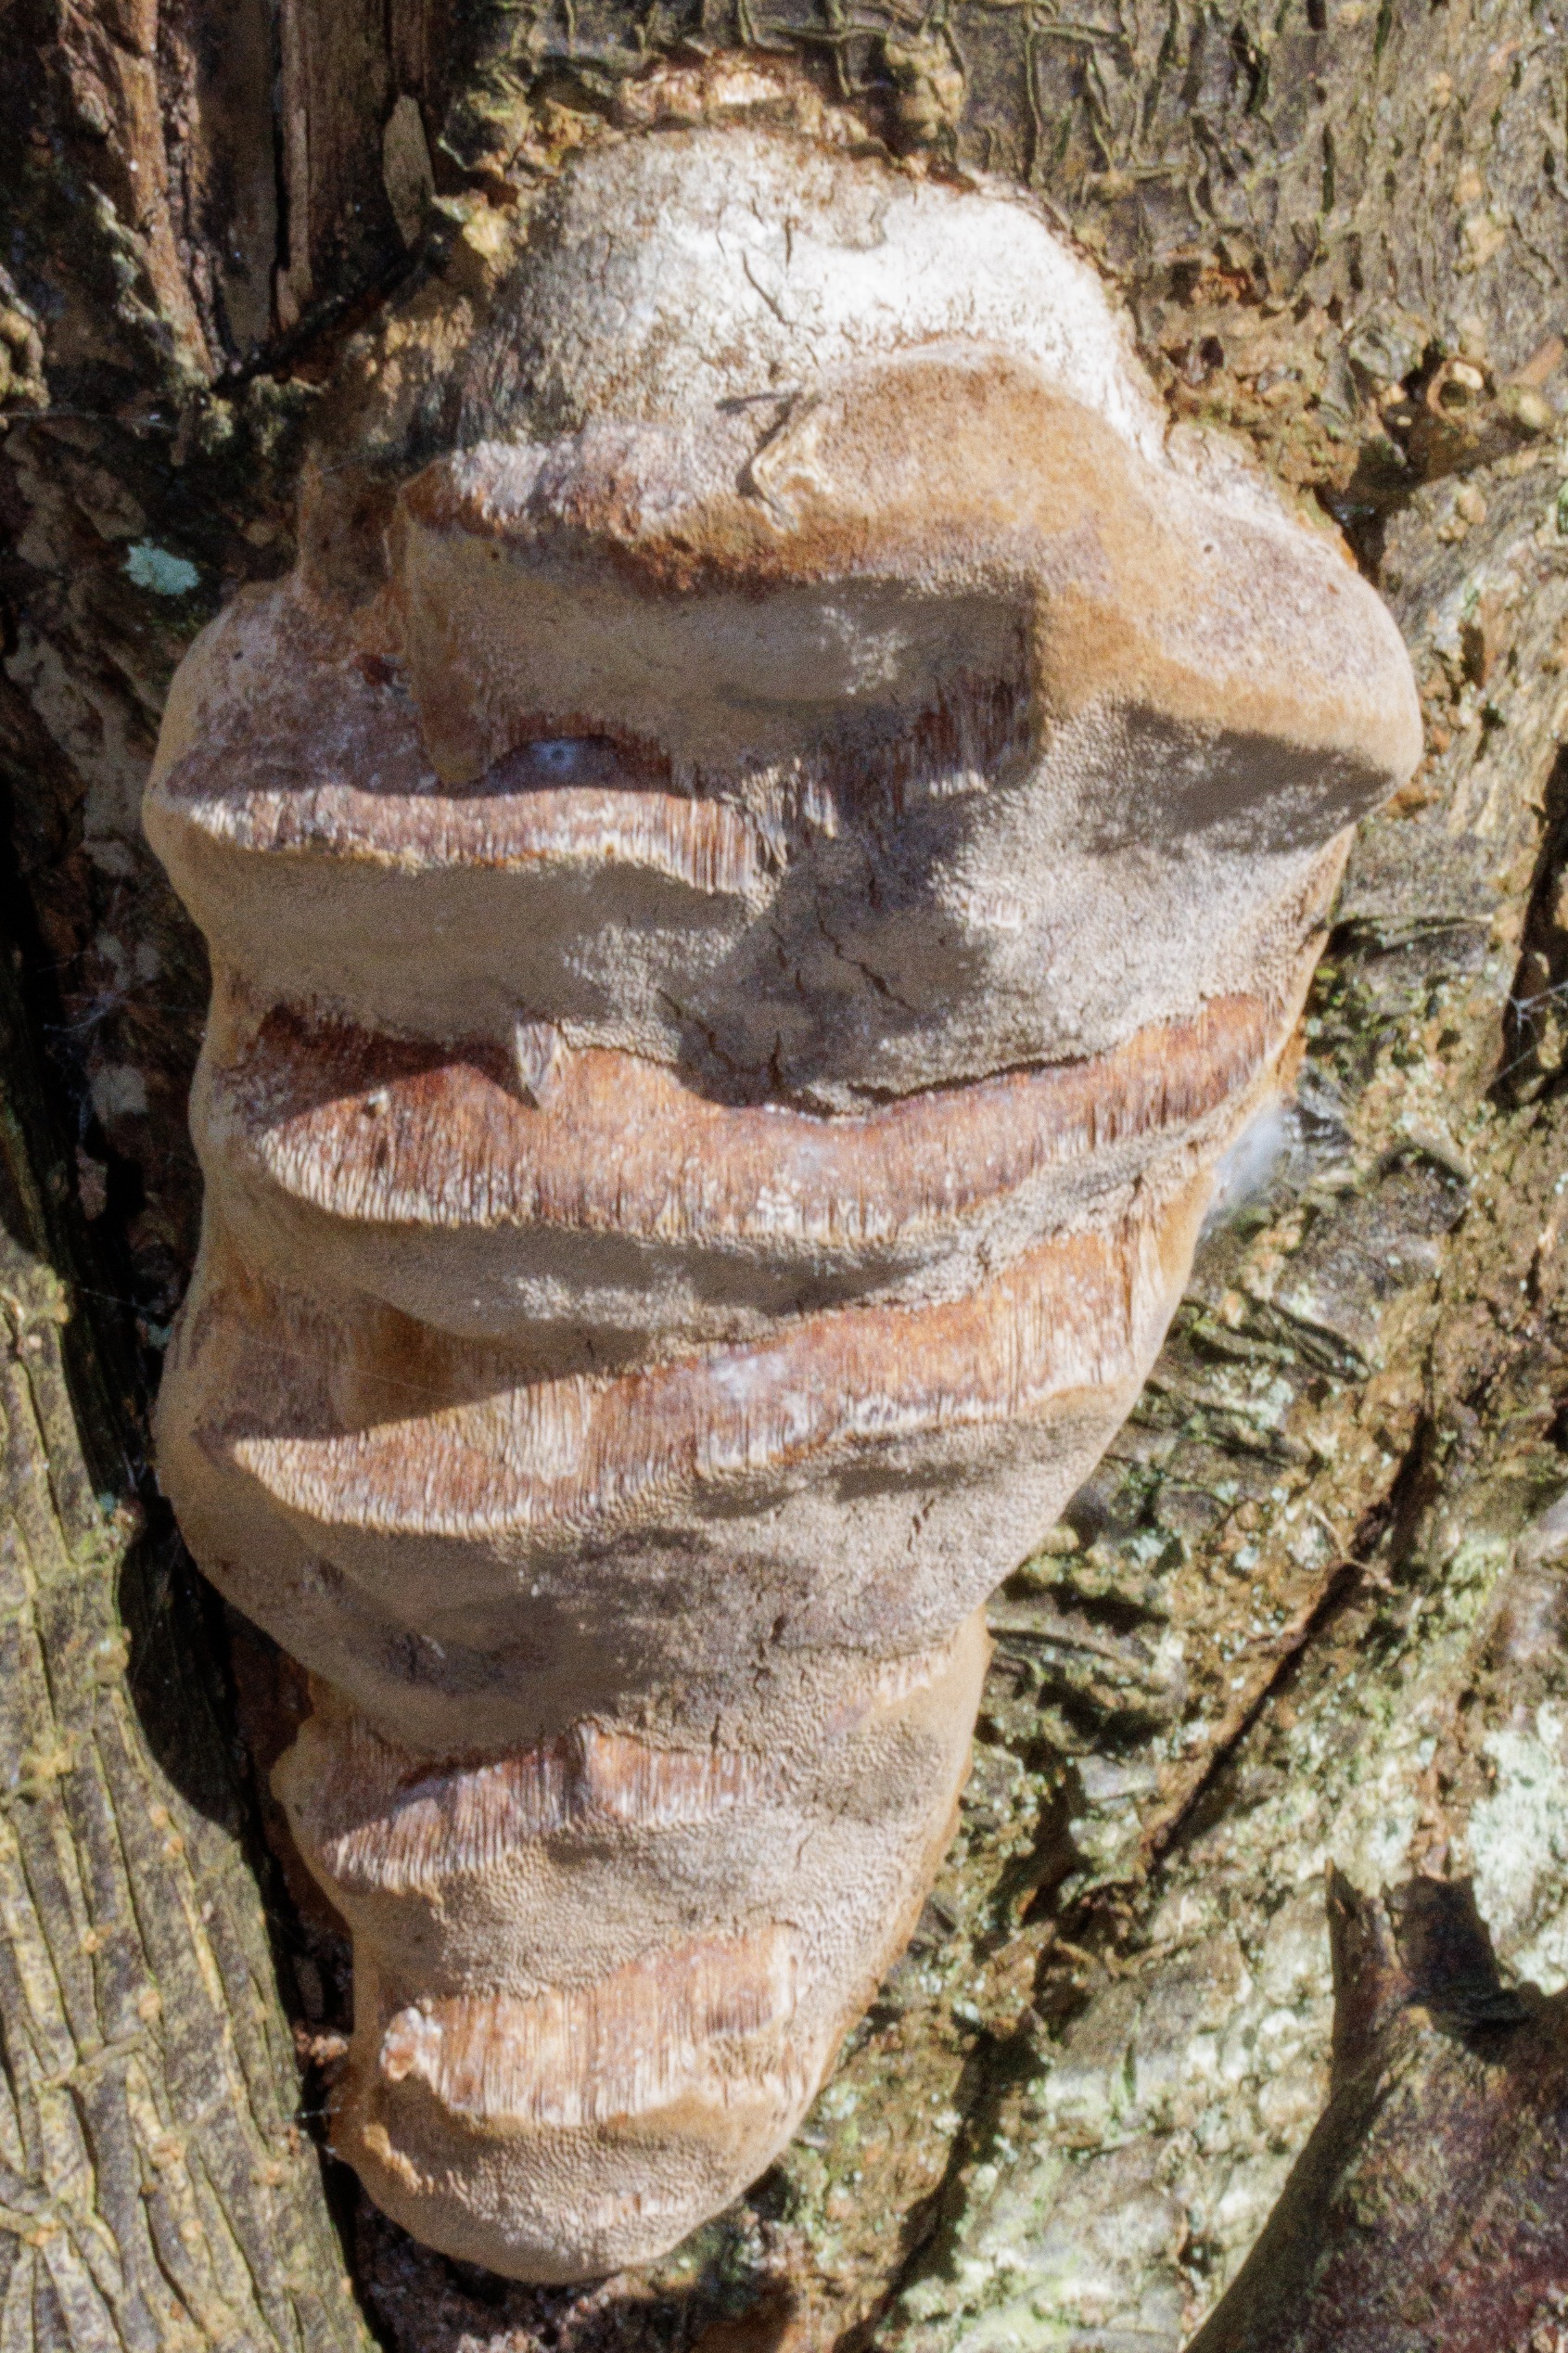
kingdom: Fungi
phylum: Basidiomycota
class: Agaricomycetes
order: Hymenochaetales
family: Hymenochaetaceae
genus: Phellinus
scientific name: Phellinus pomaceus
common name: Blomme-ildporesvamp
